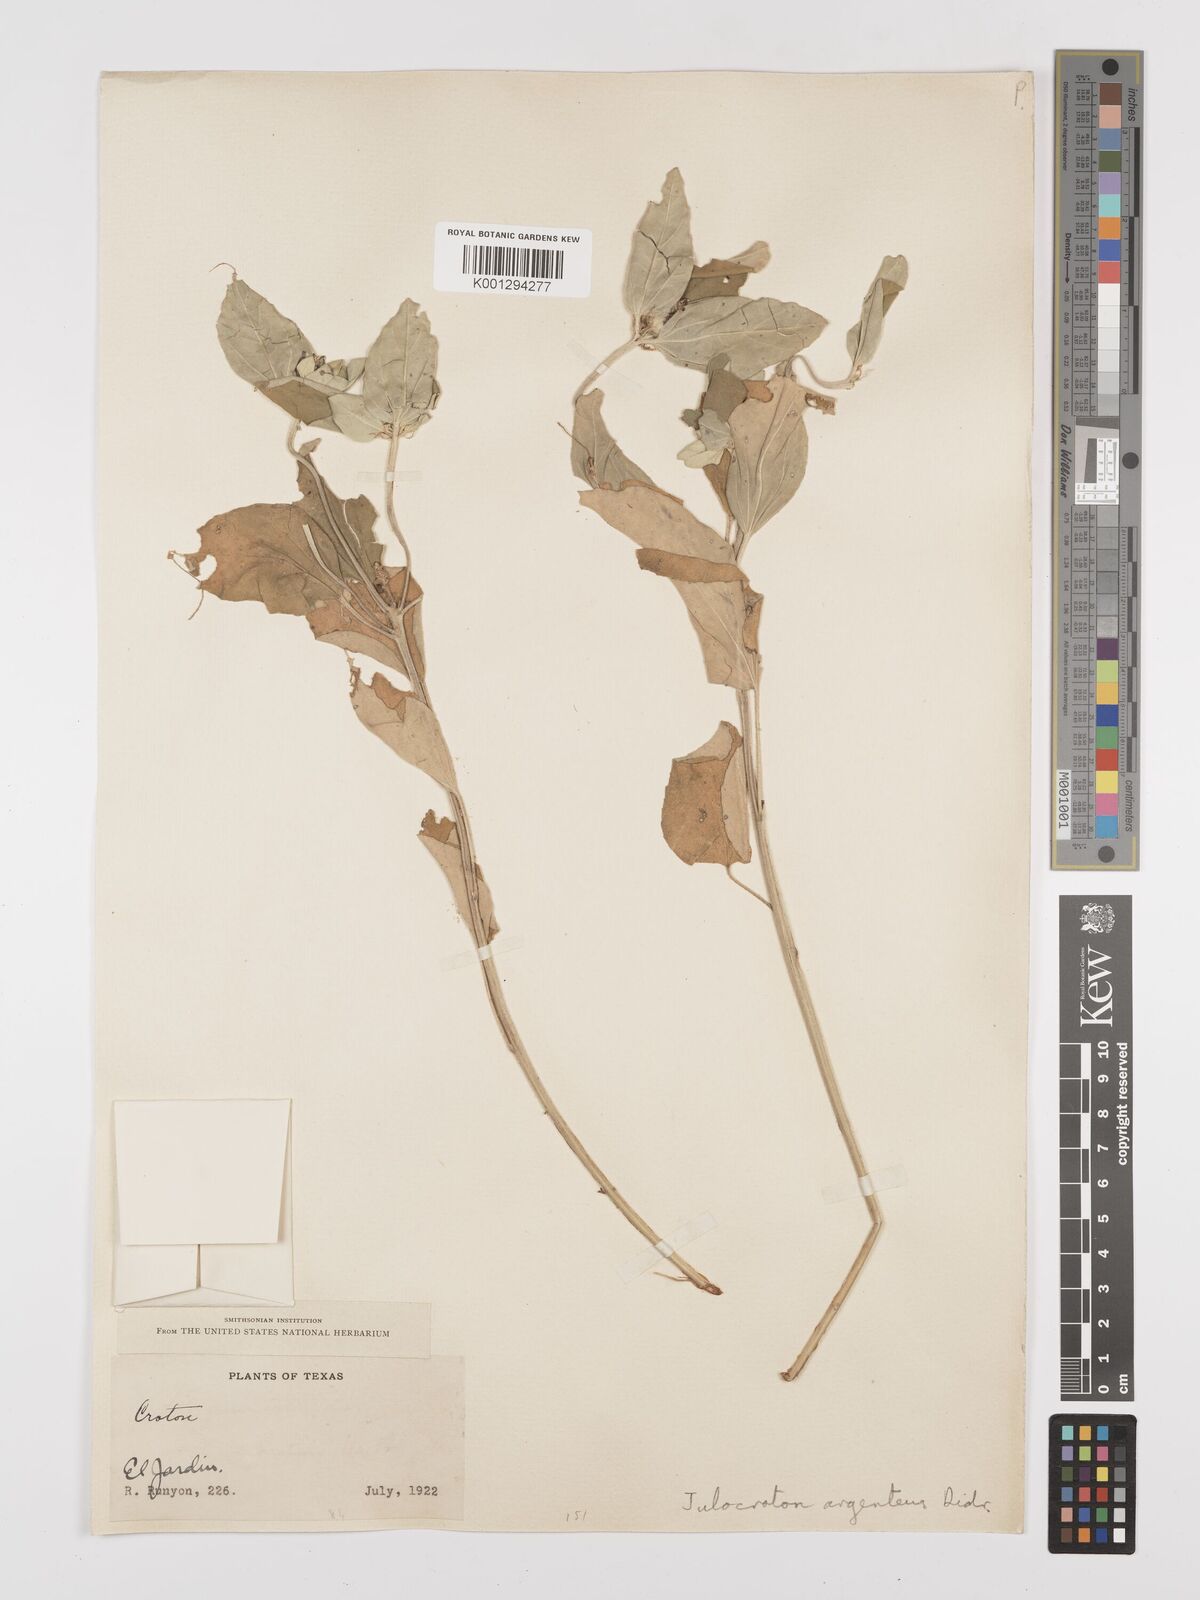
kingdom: Plantae
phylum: Tracheophyta
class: Magnoliopsida
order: Malpighiales
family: Euphorbiaceae
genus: Croton
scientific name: Croton argenteus
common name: Silver july croton
